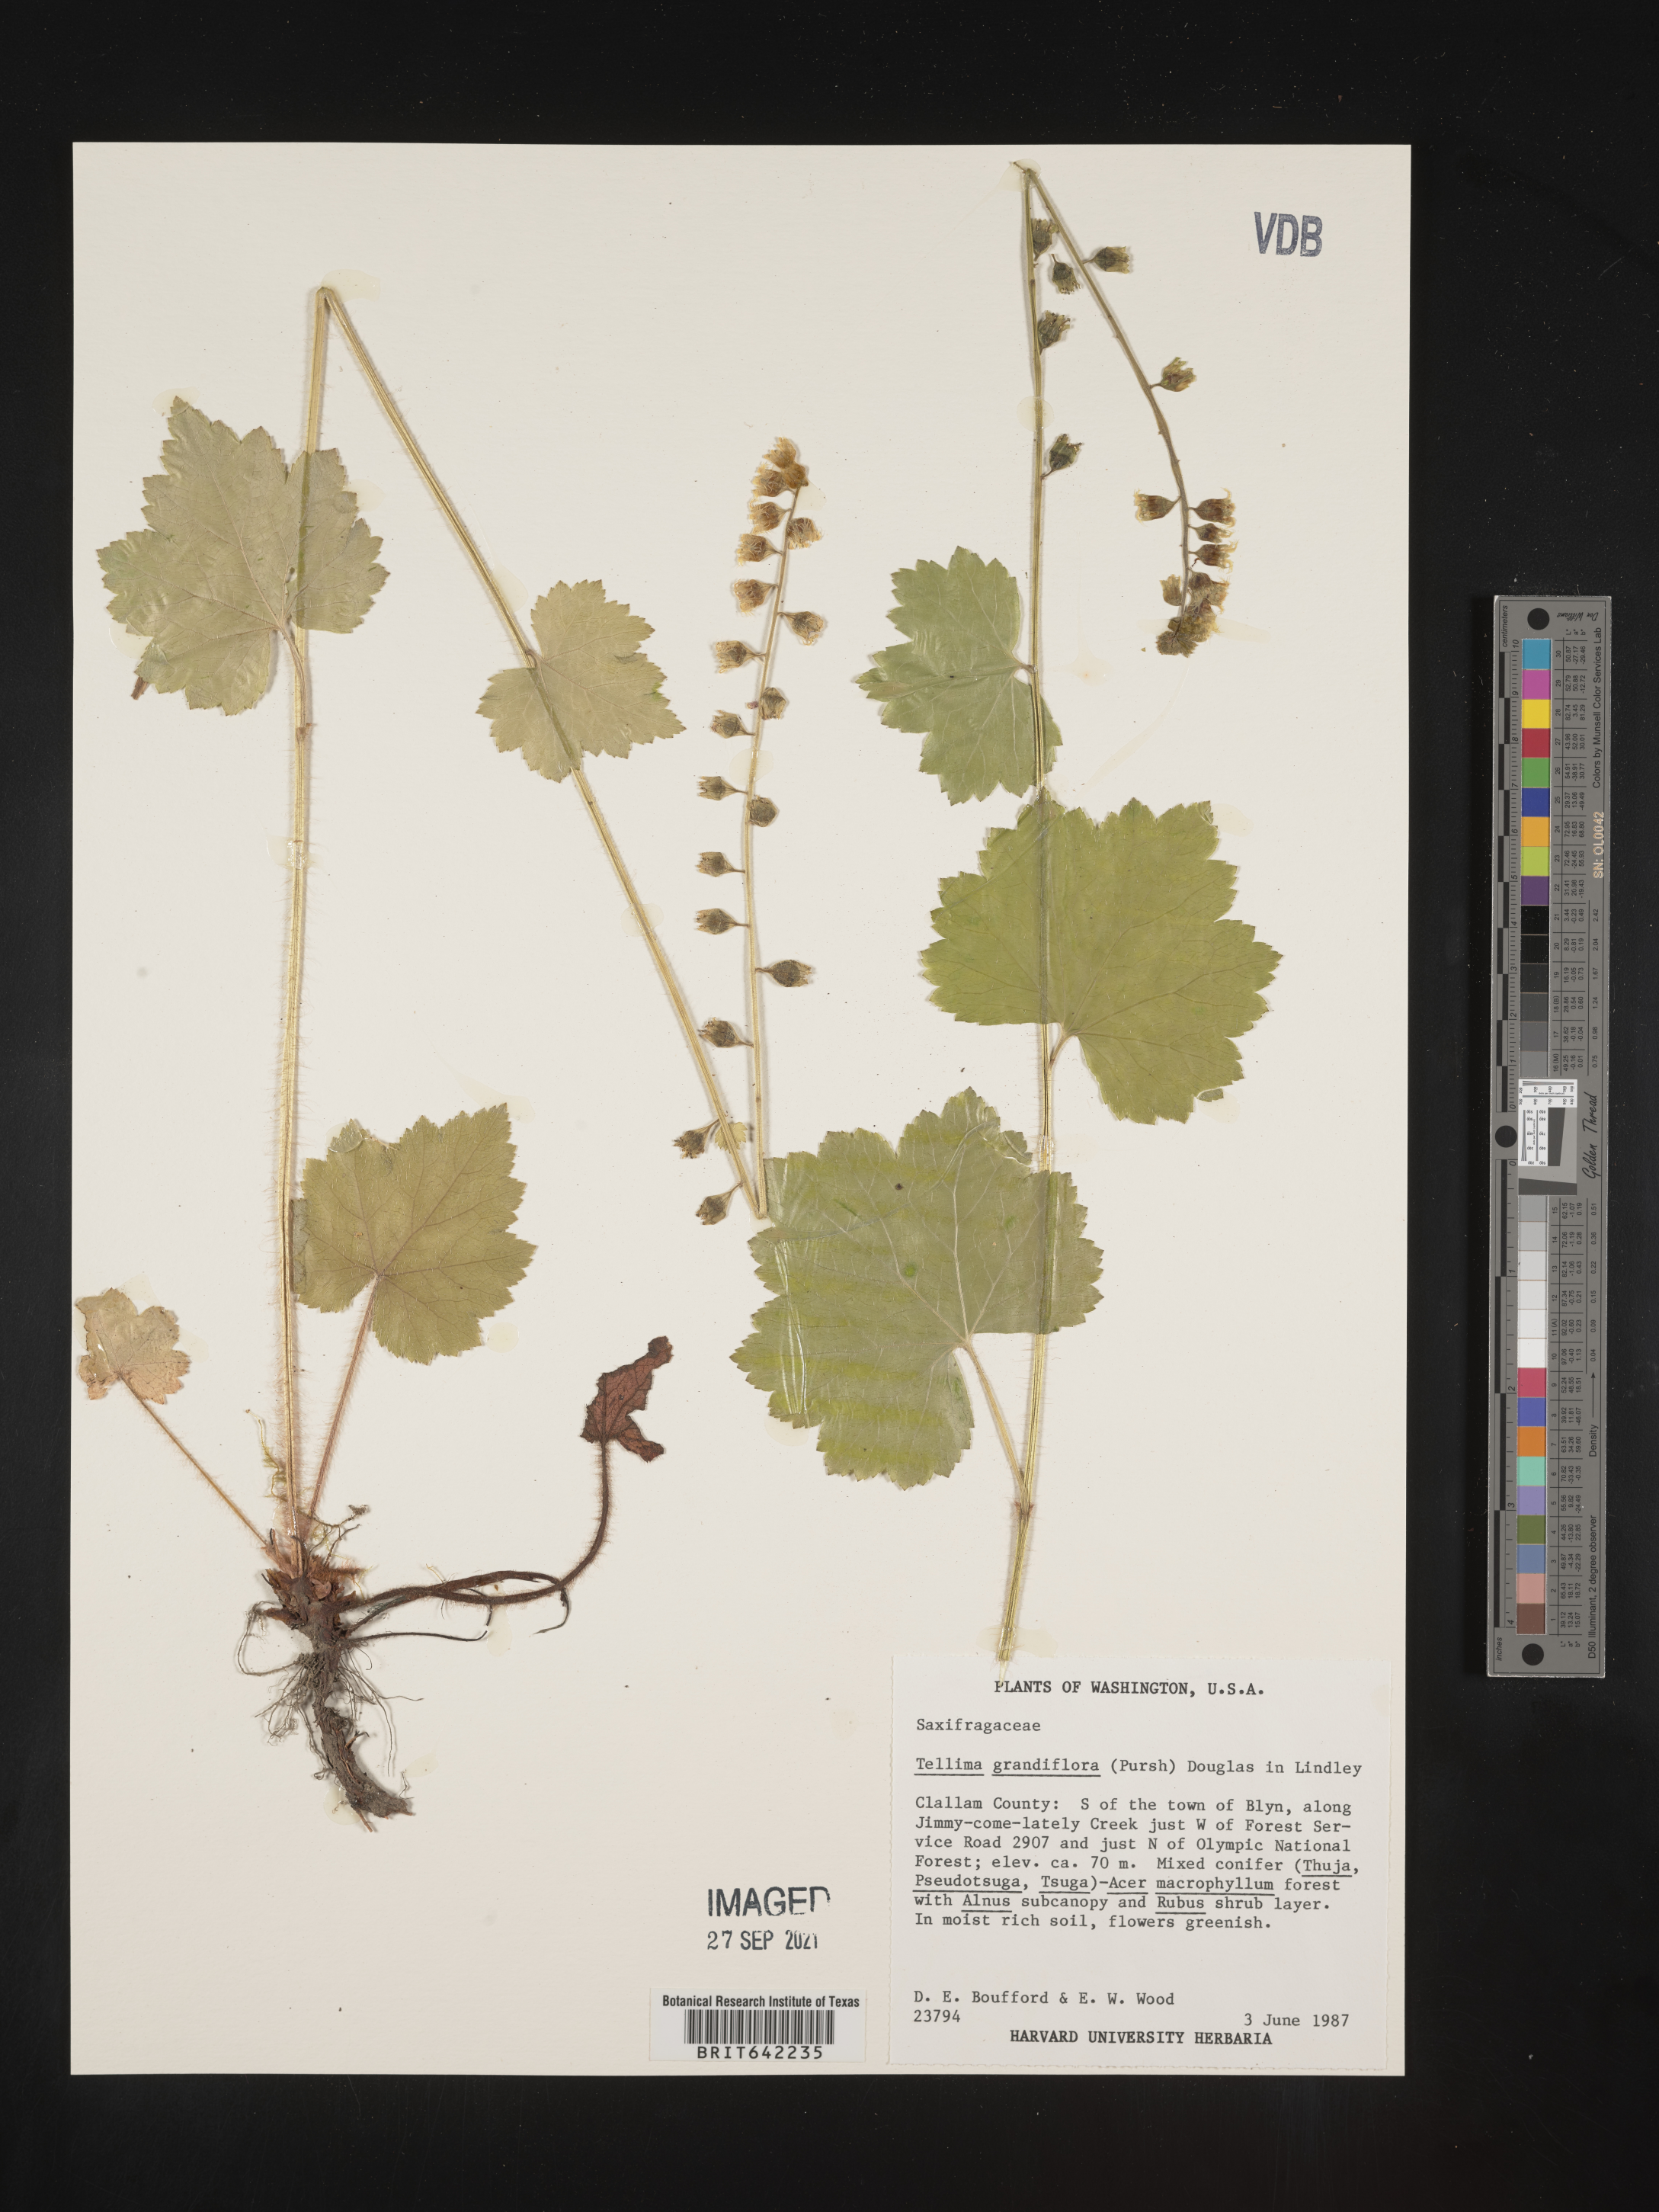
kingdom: Plantae
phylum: Tracheophyta
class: Magnoliopsida
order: Saxifragales
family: Saxifragaceae
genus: Tellima
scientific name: Tellima grandiflora
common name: Fringecups
